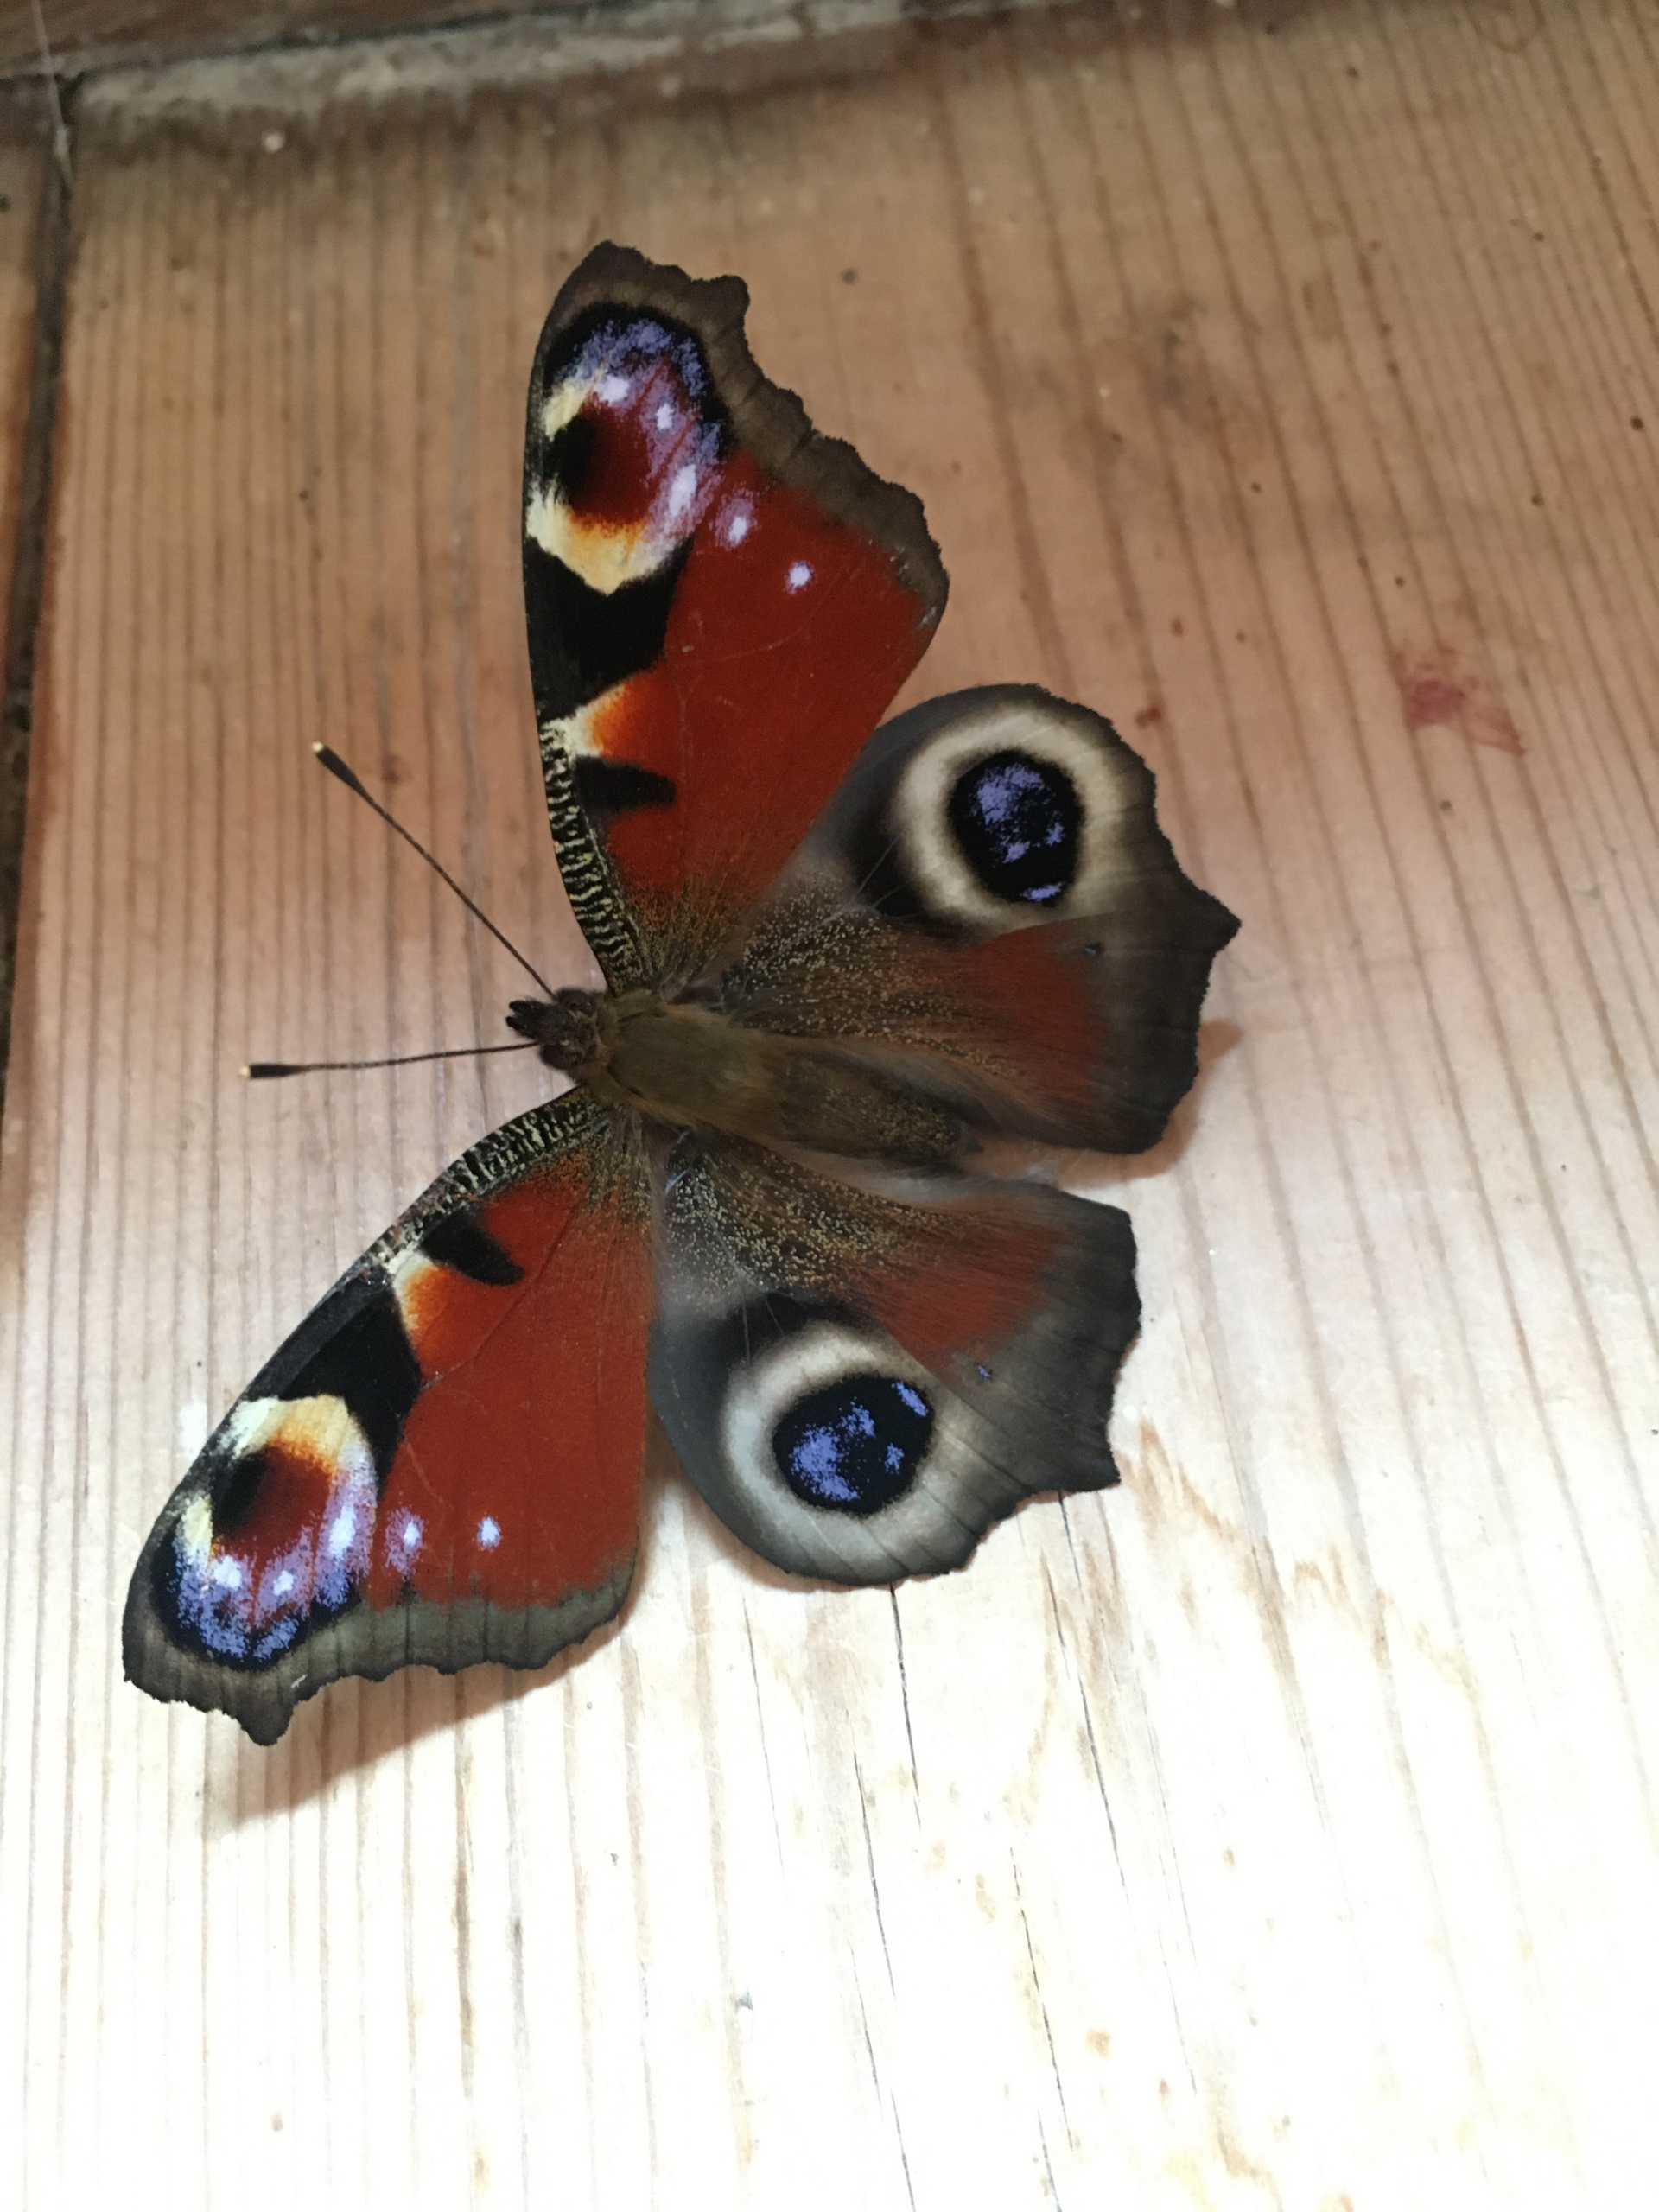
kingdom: Animalia
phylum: Arthropoda
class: Insecta
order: Lepidoptera
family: Nymphalidae
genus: Aglais
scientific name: Aglais io
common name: Dagpåfugleøje
